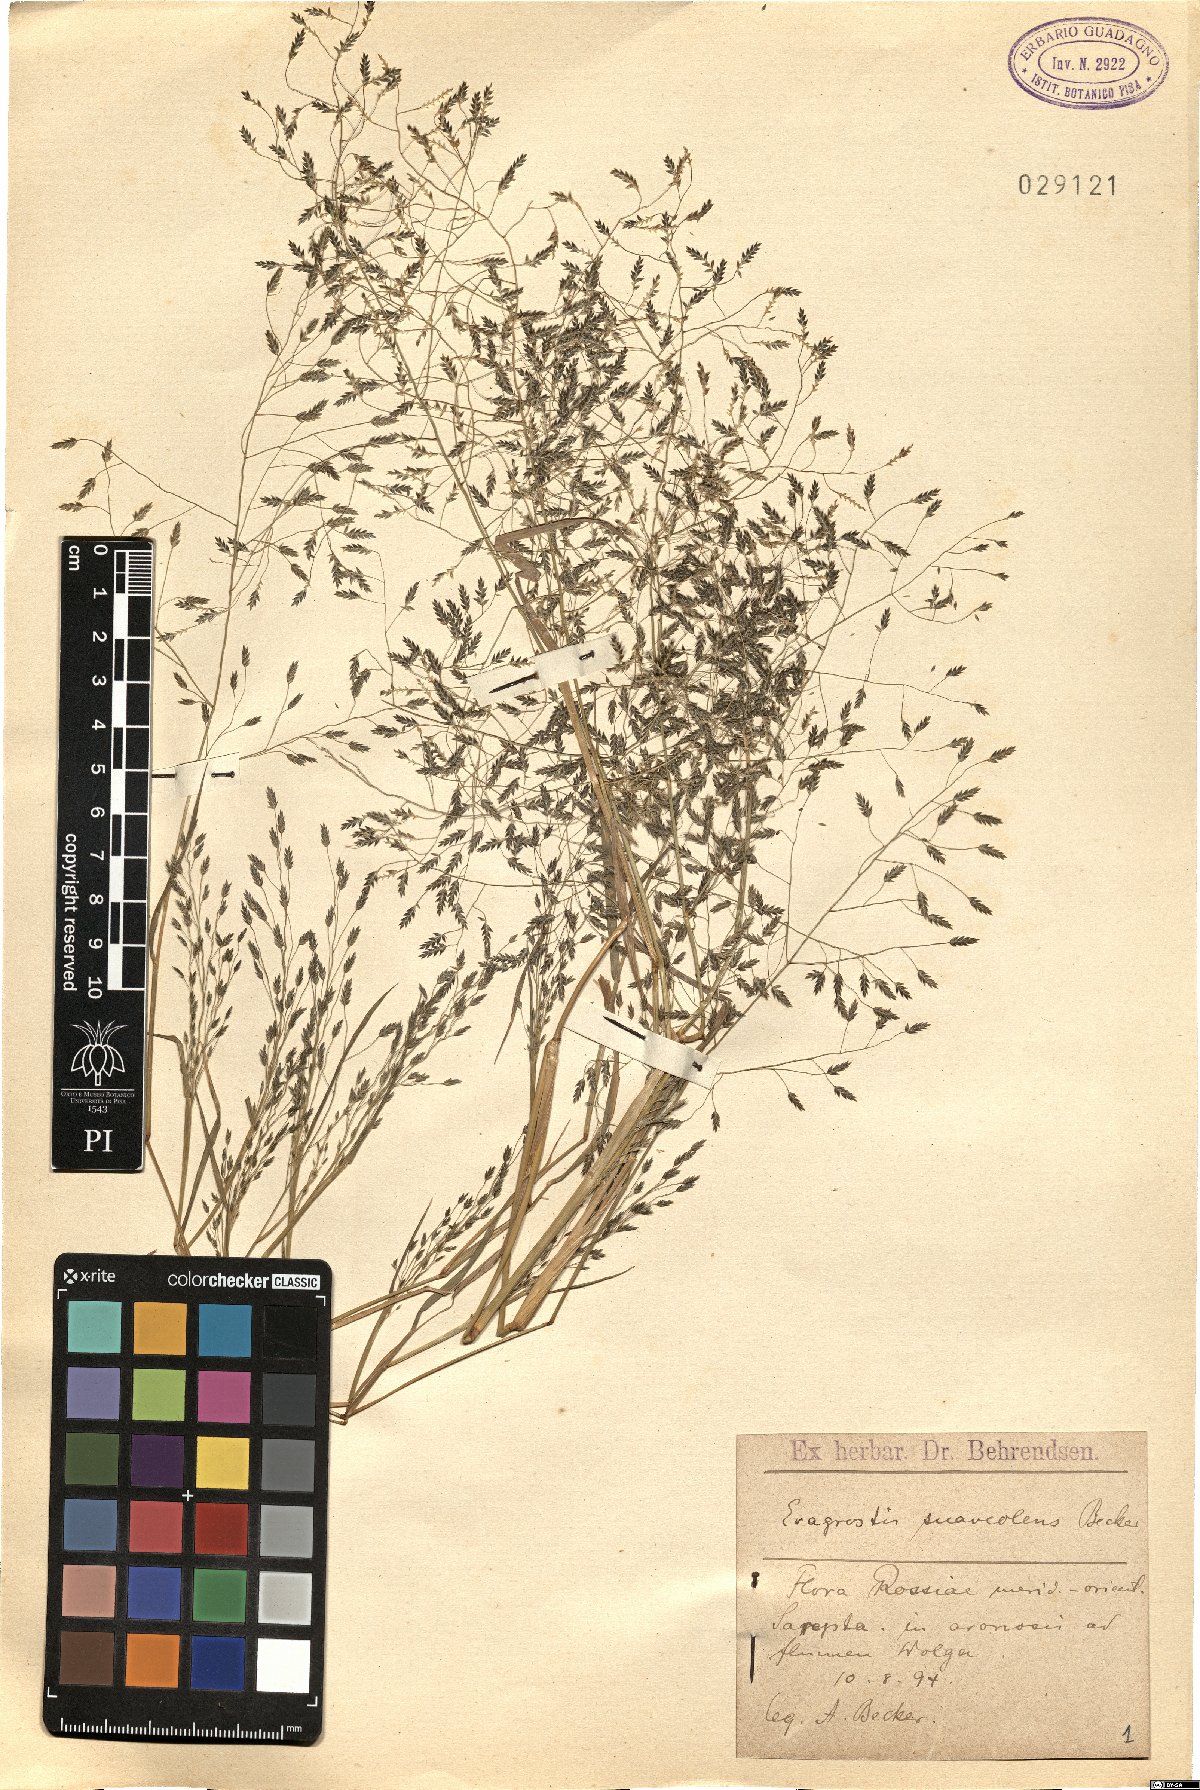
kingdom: Plantae
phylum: Tracheophyta
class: Liliopsida
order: Poales
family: Poaceae
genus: Eragrostis
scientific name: Eragrostis minor
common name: Small love-grass
